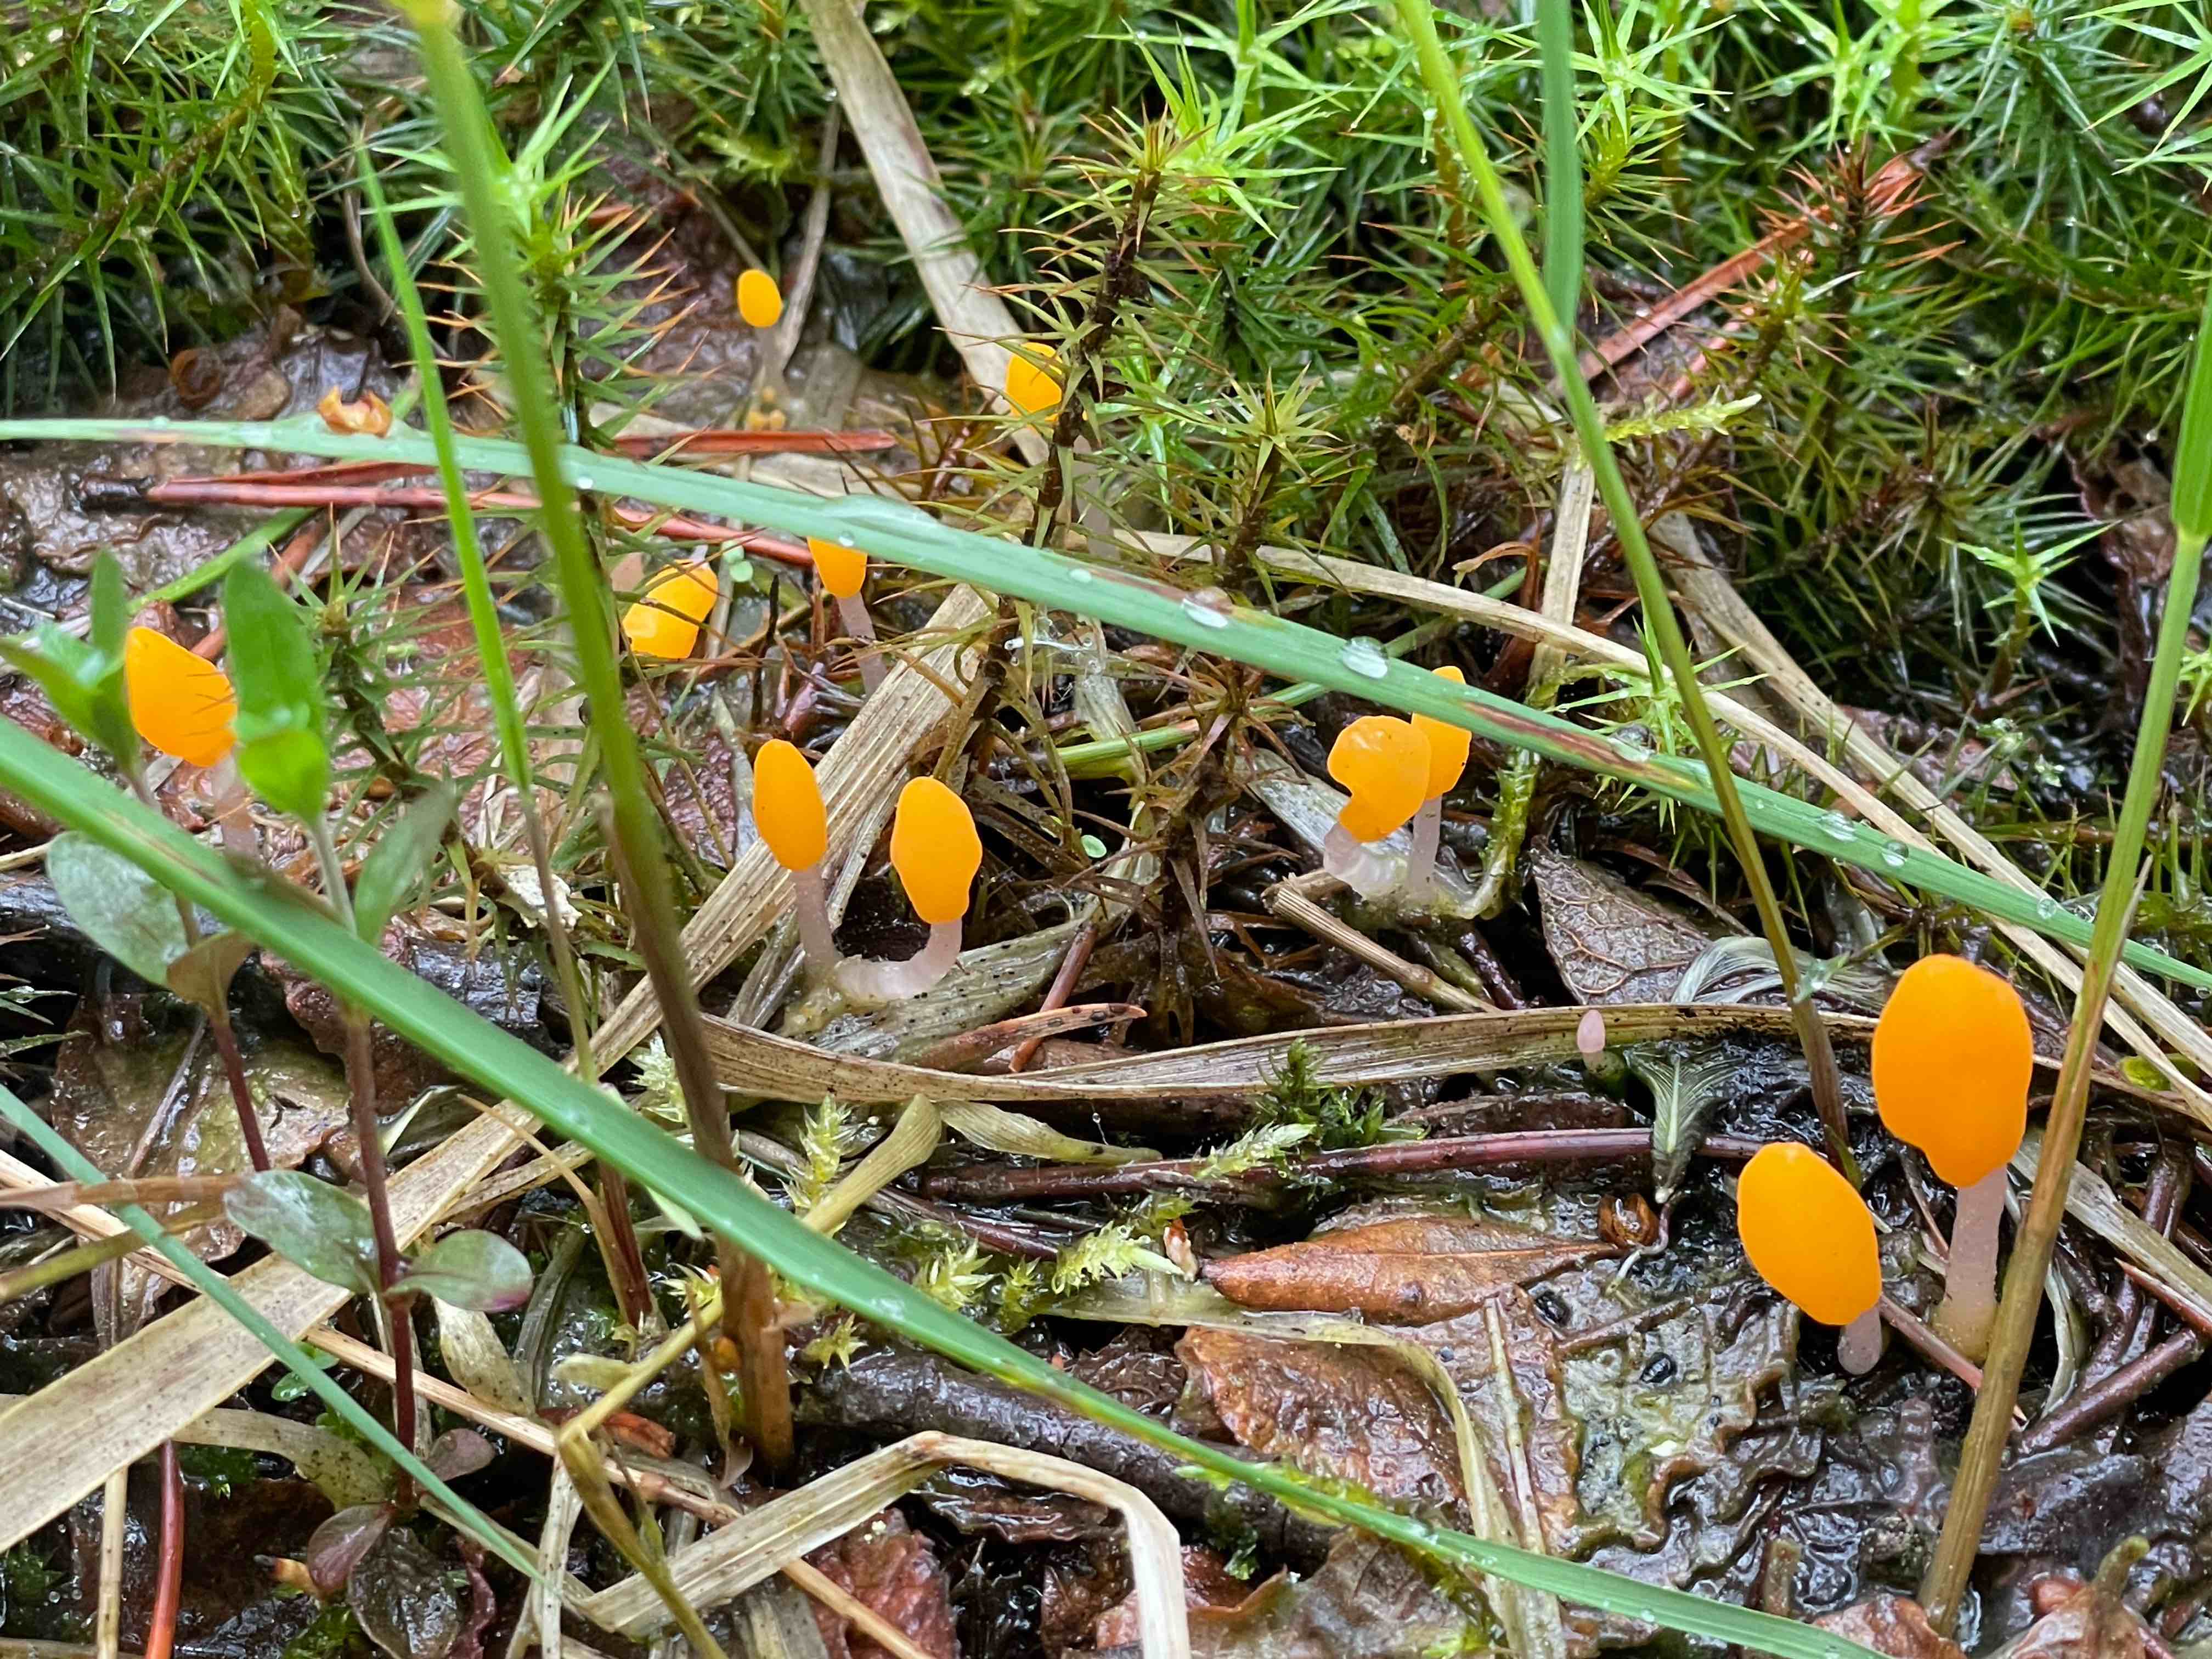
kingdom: Fungi
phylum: Ascomycota
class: Leotiomycetes
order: Helotiales
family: Cenangiaceae
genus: Mitrula
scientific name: Mitrula paludosa
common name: gul nøkketunge
